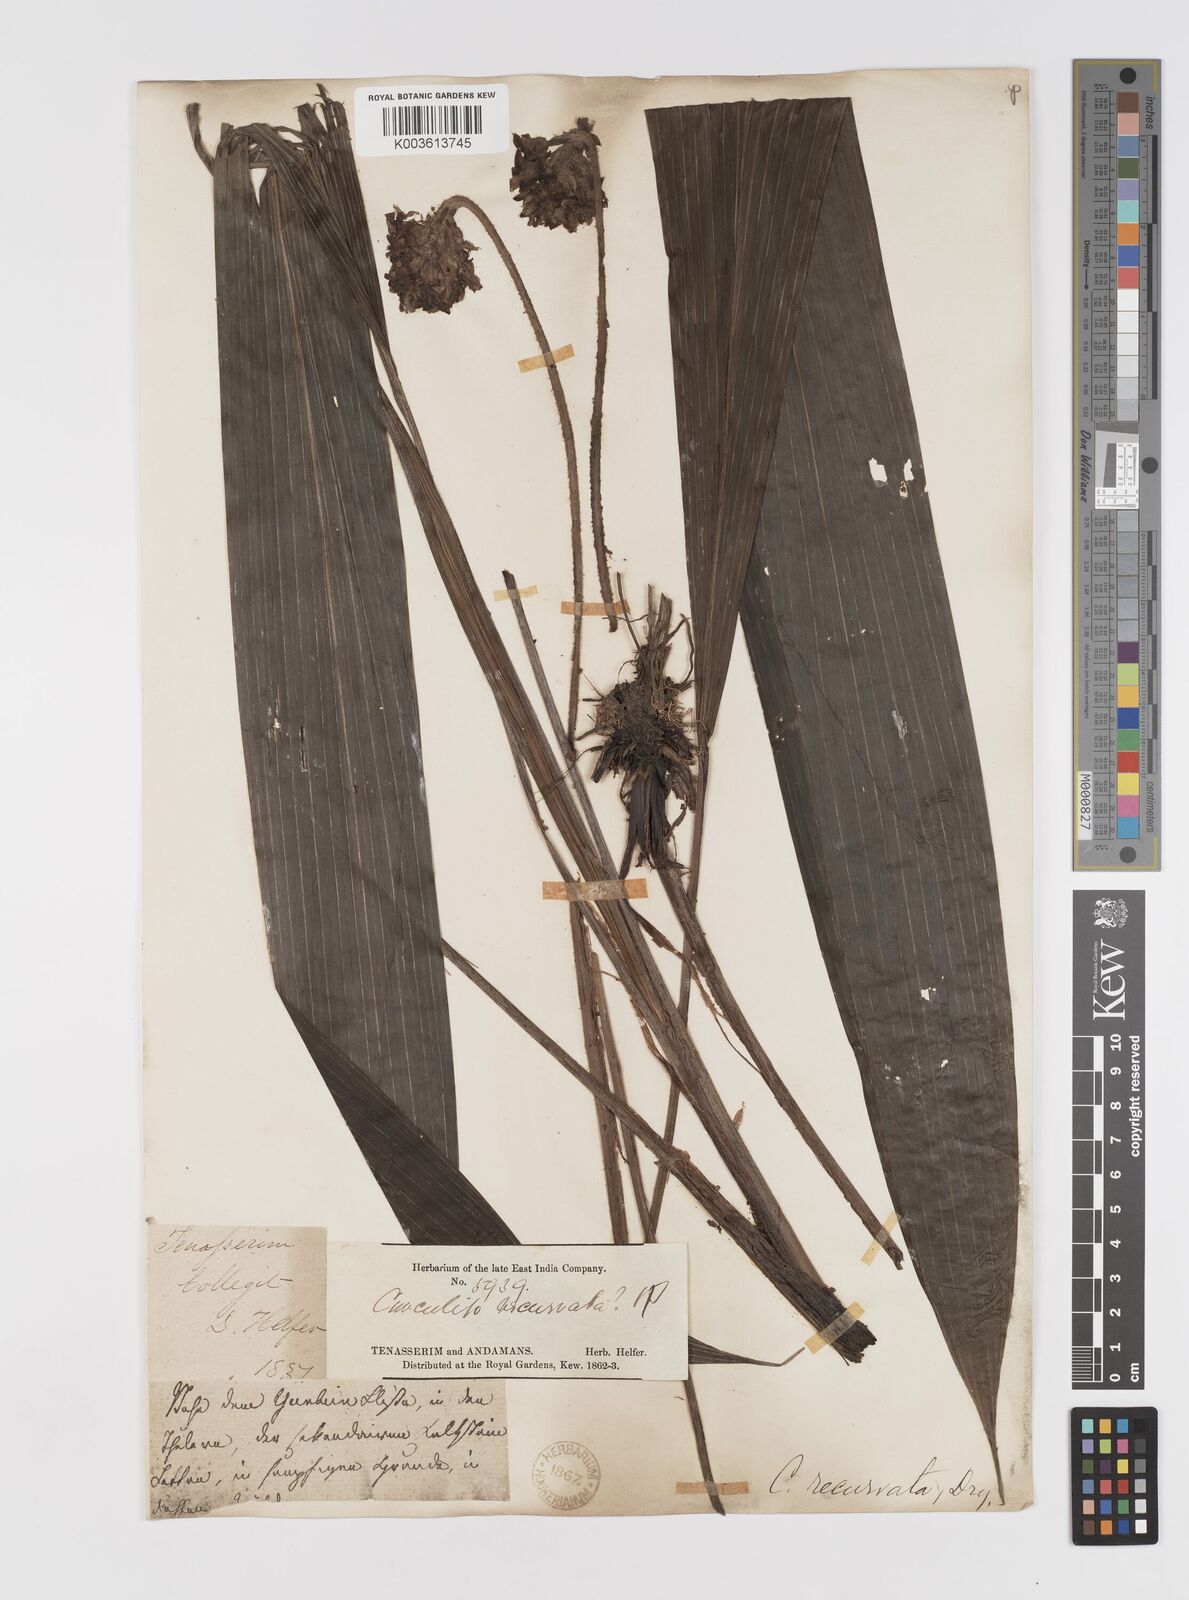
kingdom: Plantae
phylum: Tracheophyta
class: Liliopsida
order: Asparagales
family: Hypoxidaceae
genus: Curculigo
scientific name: Curculigo capitulata
